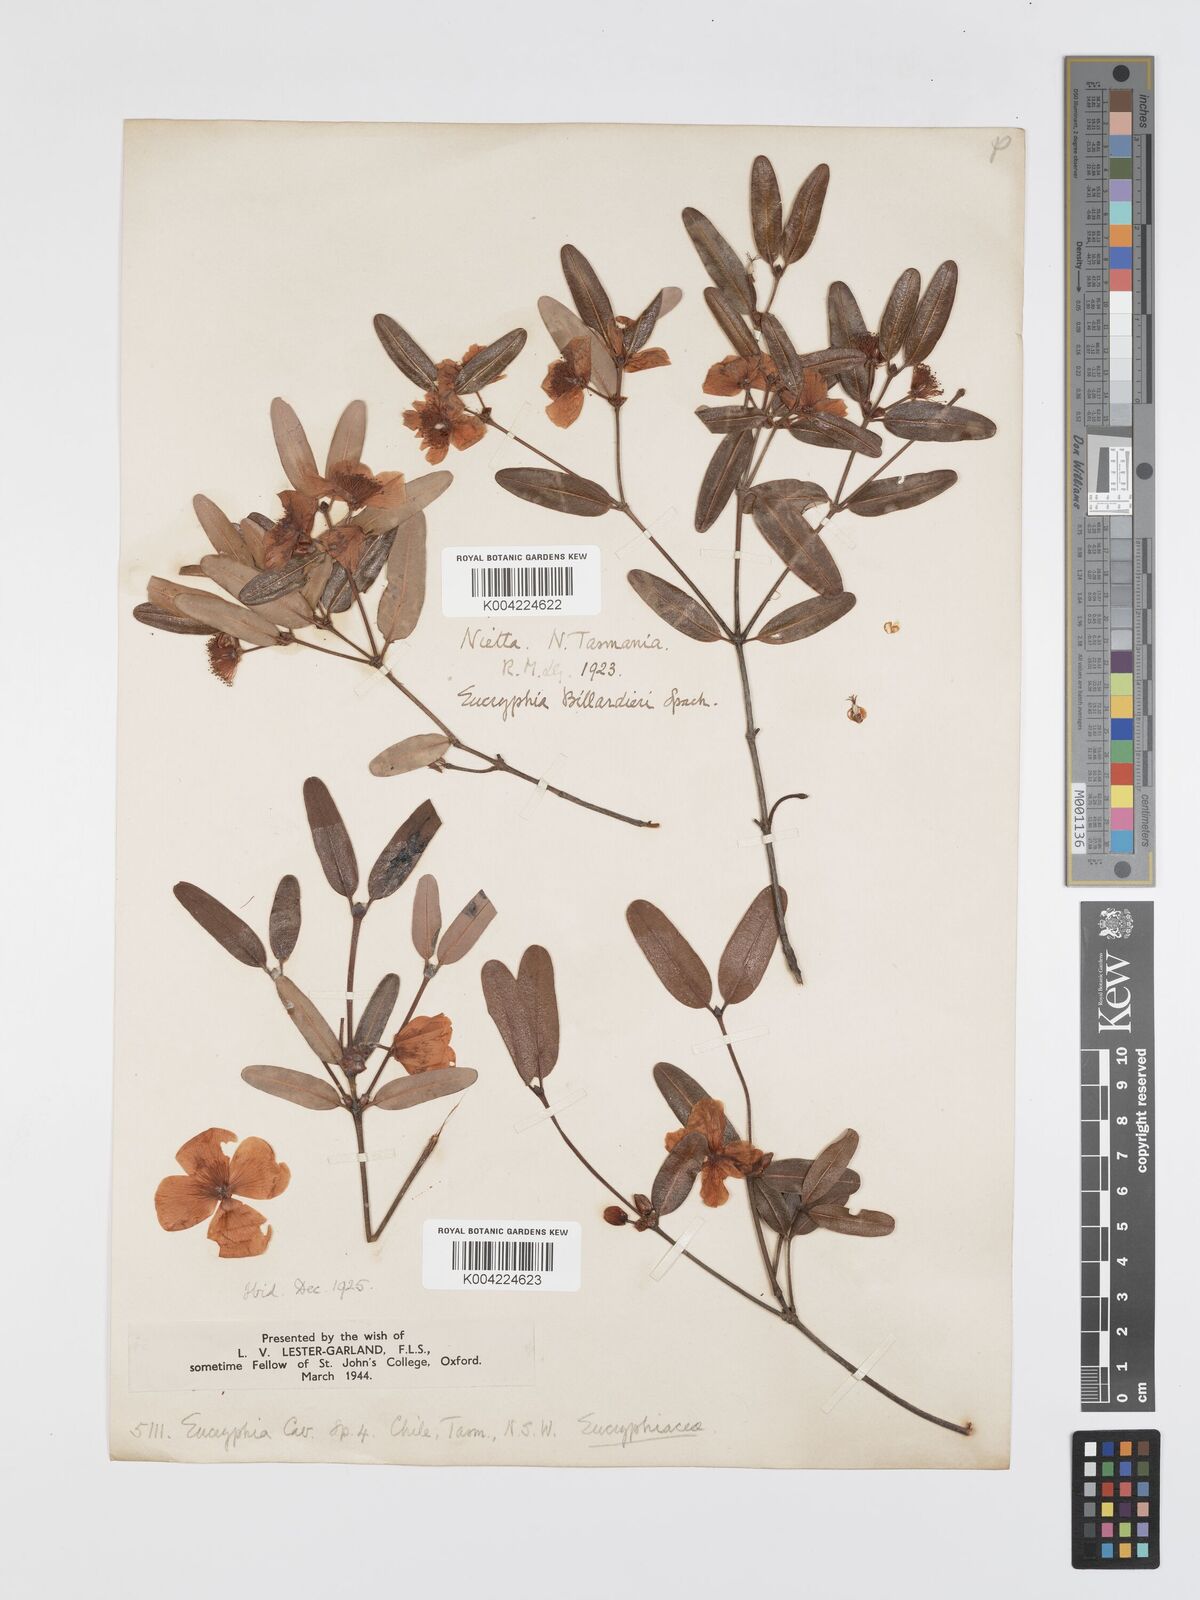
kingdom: Plantae
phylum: Tracheophyta
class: Magnoliopsida
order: Oxalidales
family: Cunoniaceae
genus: Eucryphia
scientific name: Eucryphia lucida
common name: Leatherwood
